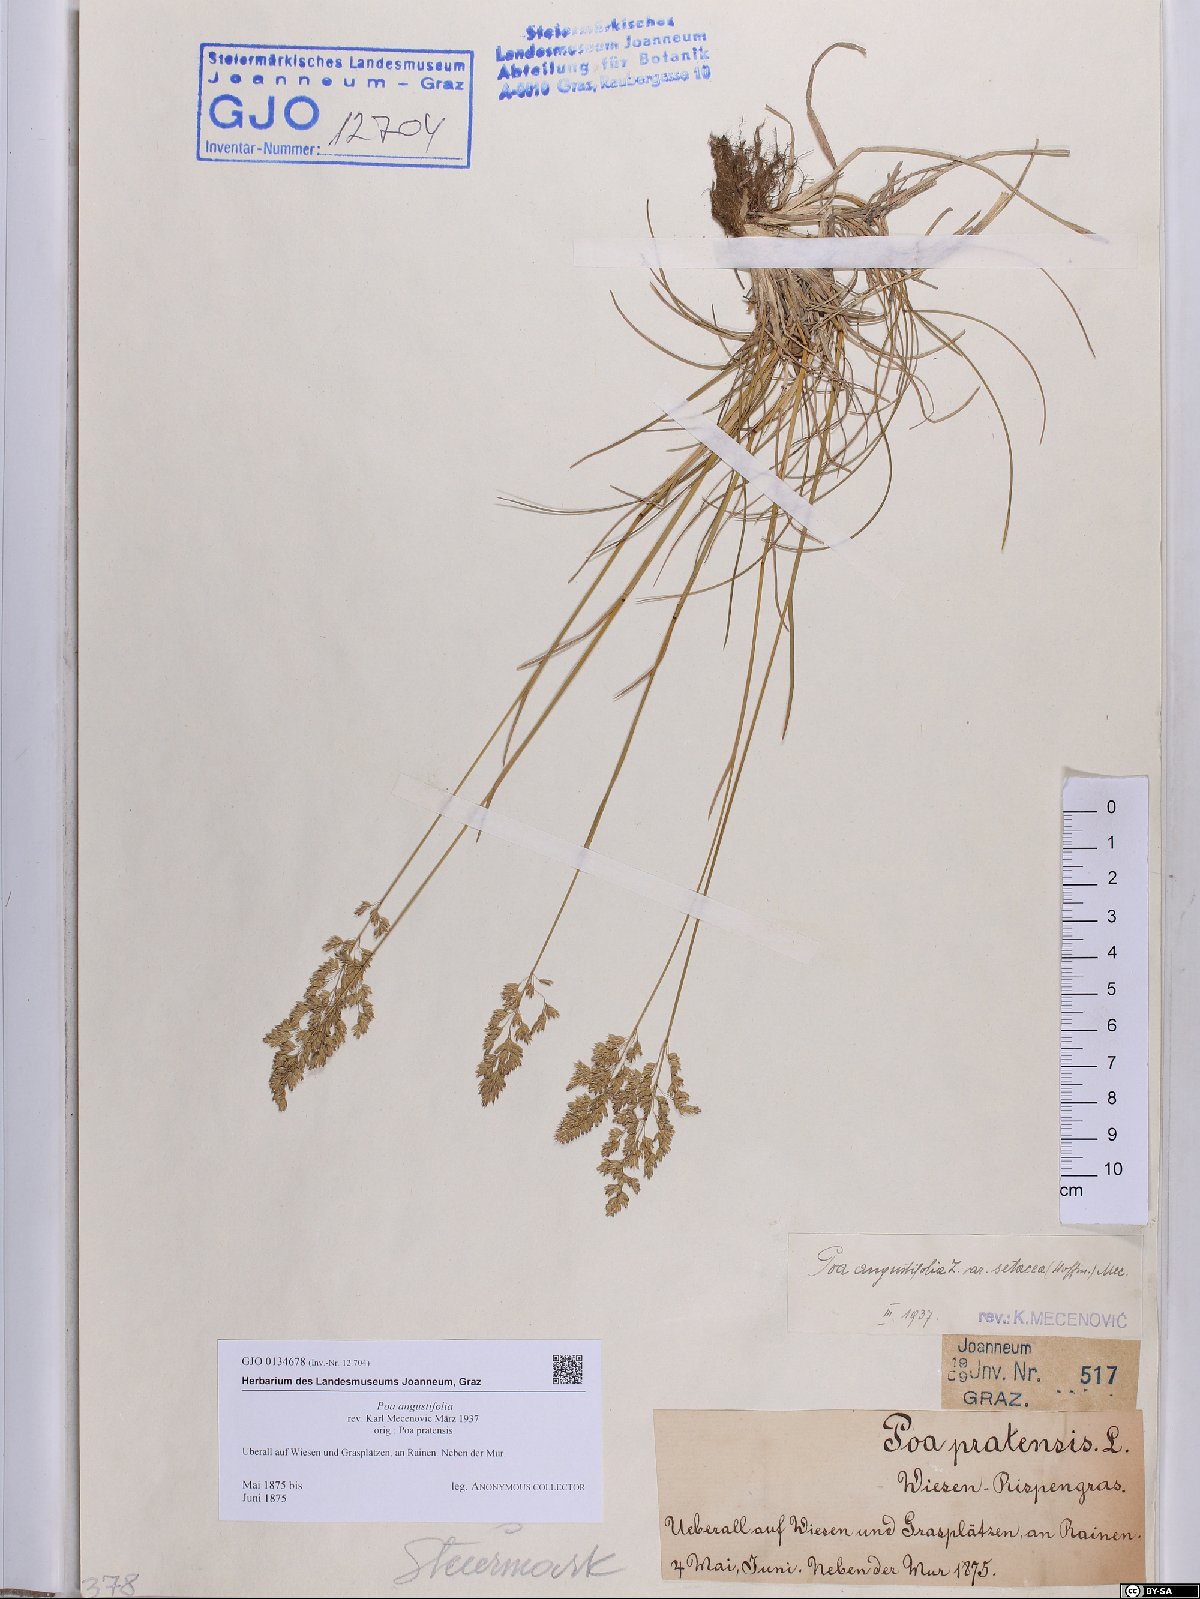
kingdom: Plantae
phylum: Tracheophyta
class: Liliopsida
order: Poales
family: Poaceae
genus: Poa
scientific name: Poa angustifolia
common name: Narrow-leaved meadow-grass
